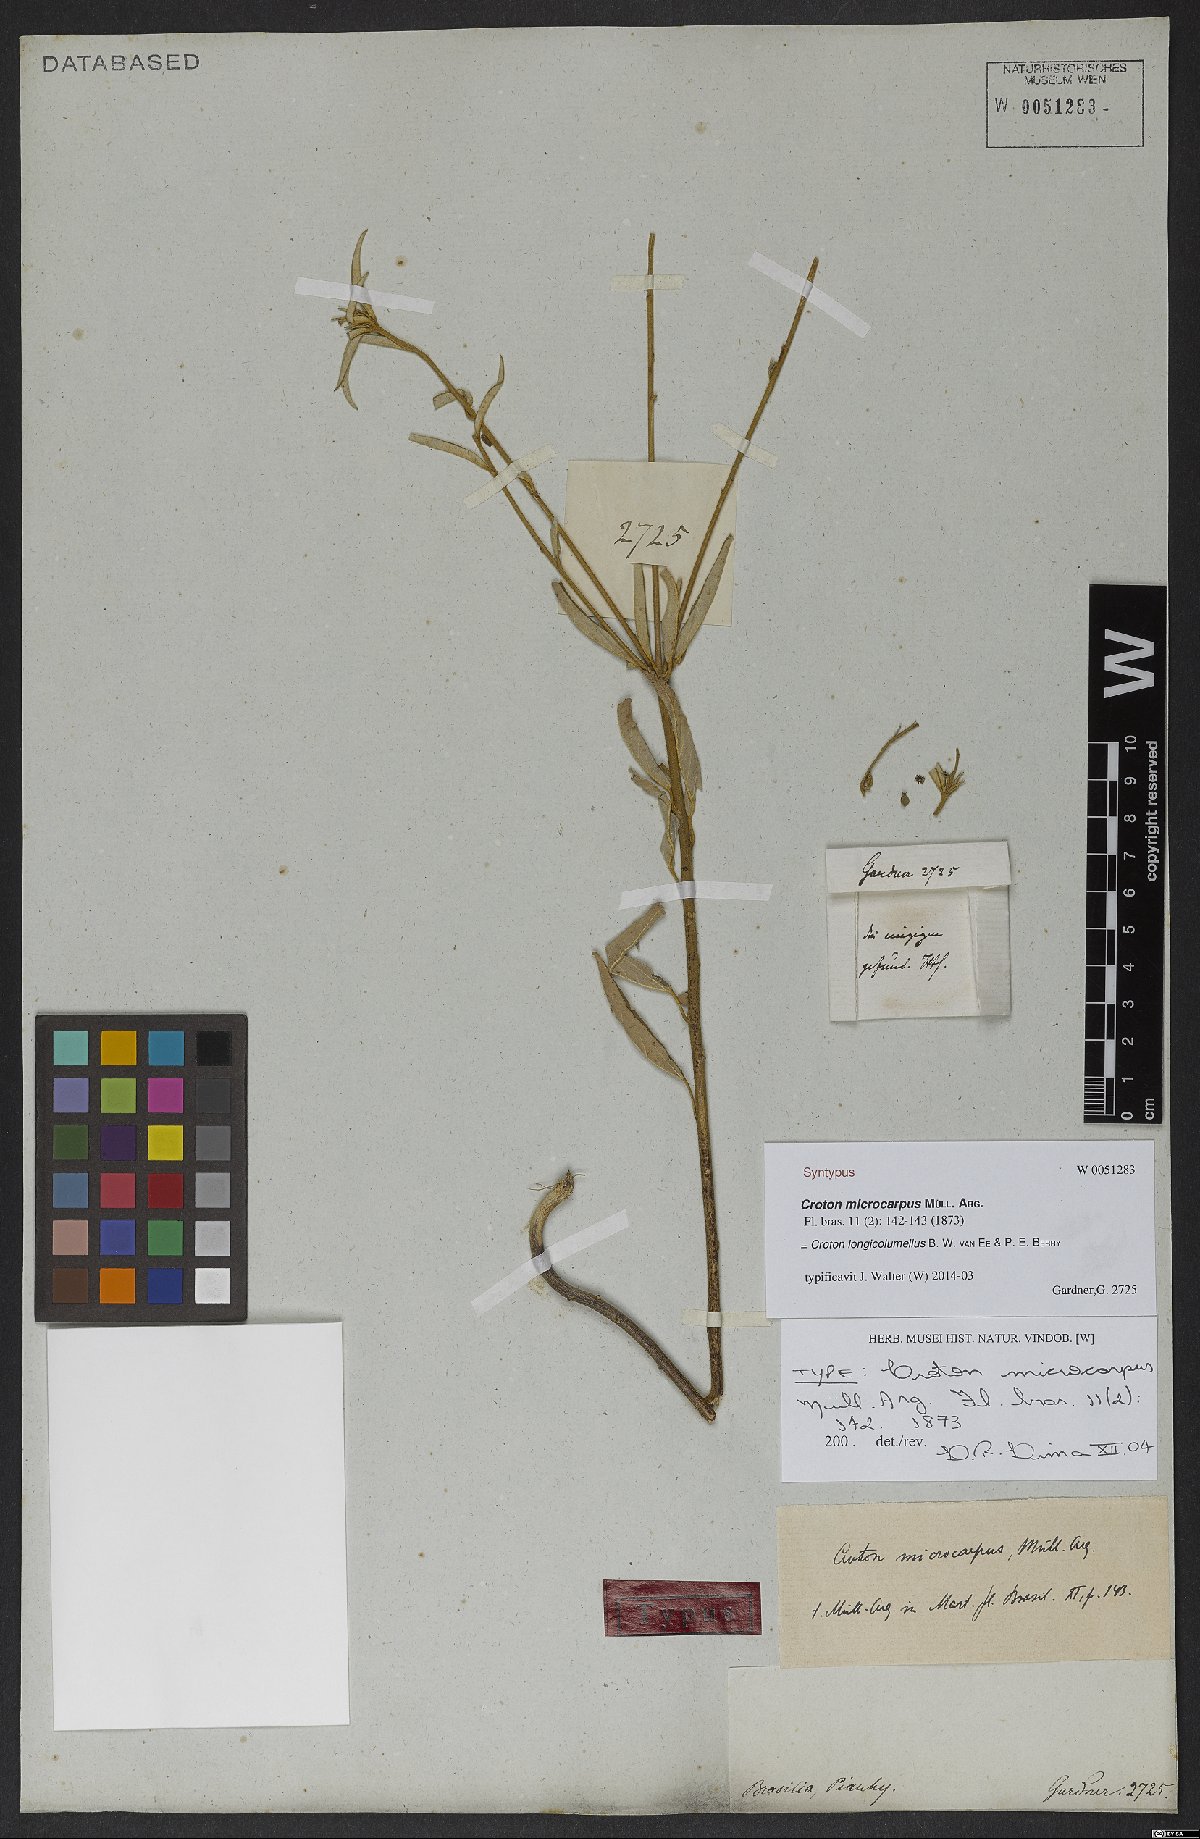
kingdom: Plantae
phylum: Tracheophyta
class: Magnoliopsida
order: Malpighiales
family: Euphorbiaceae
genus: Croton
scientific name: Croton longicolumellus
